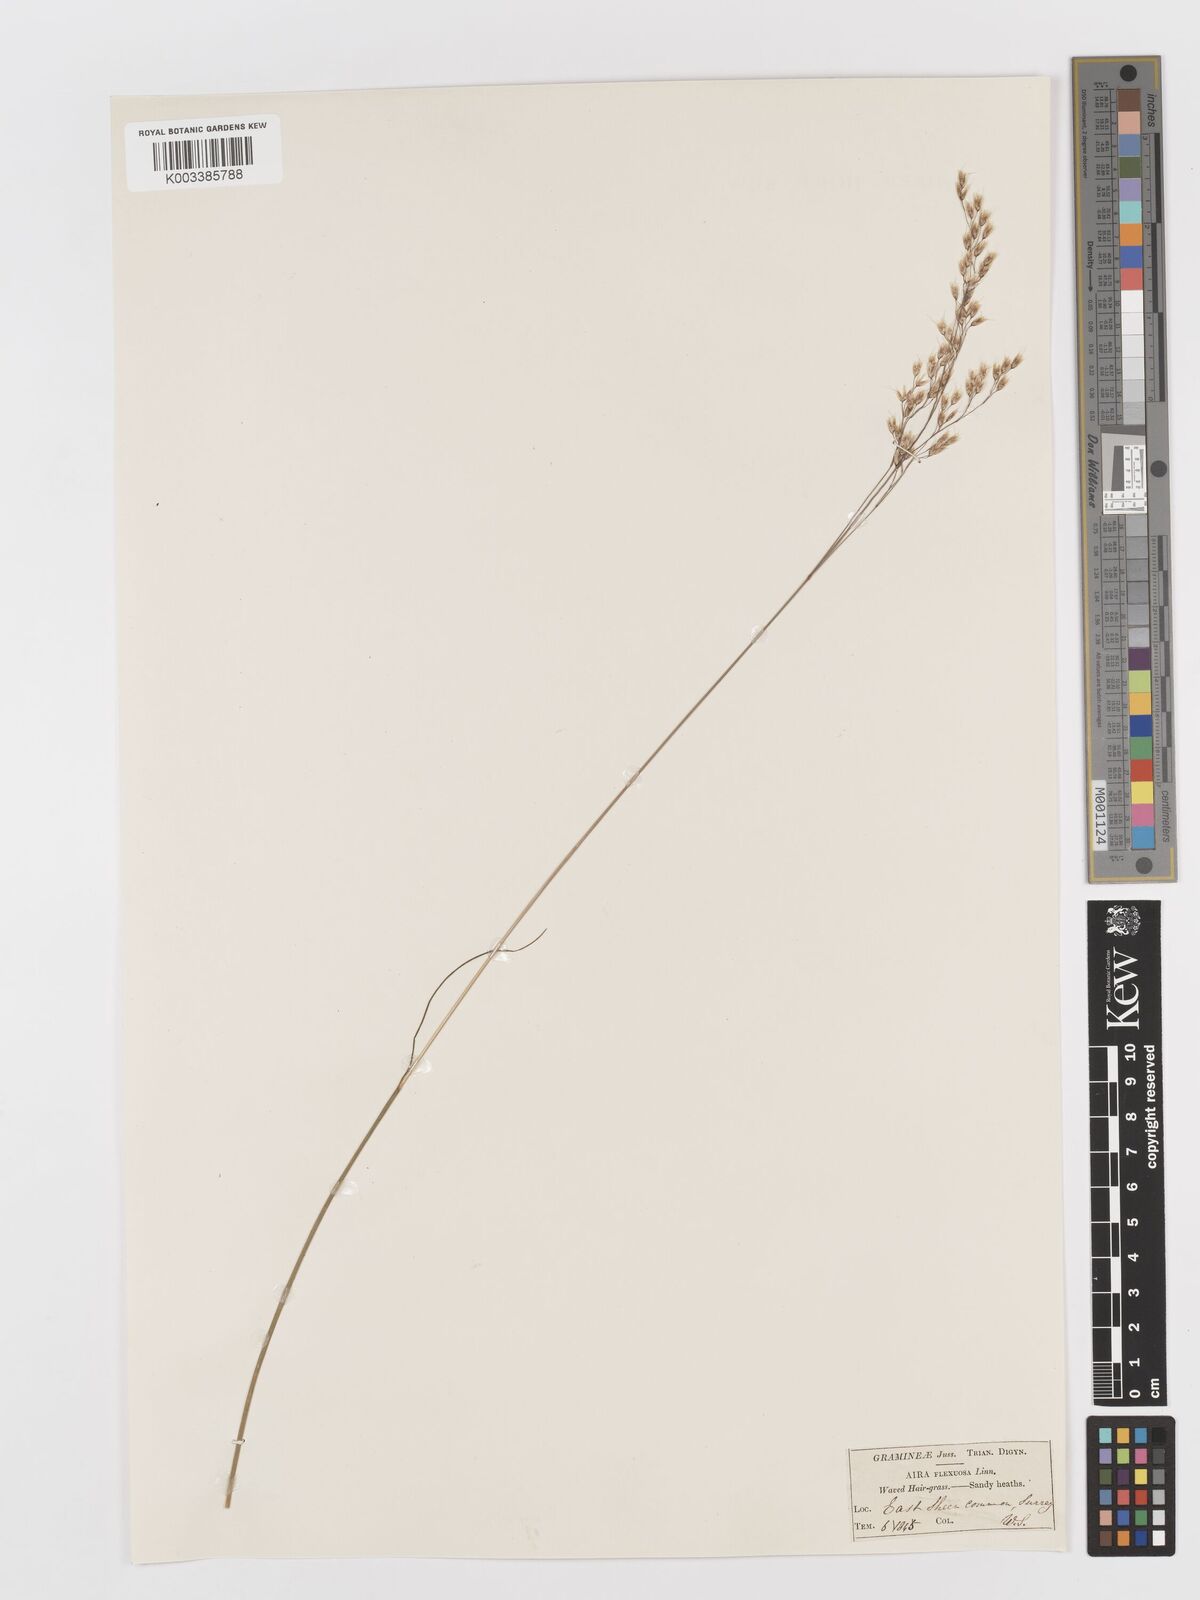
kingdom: Plantae
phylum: Tracheophyta
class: Liliopsida
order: Poales
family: Poaceae
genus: Avenella
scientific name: Avenella flexuosa
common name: Wavy hairgrass
